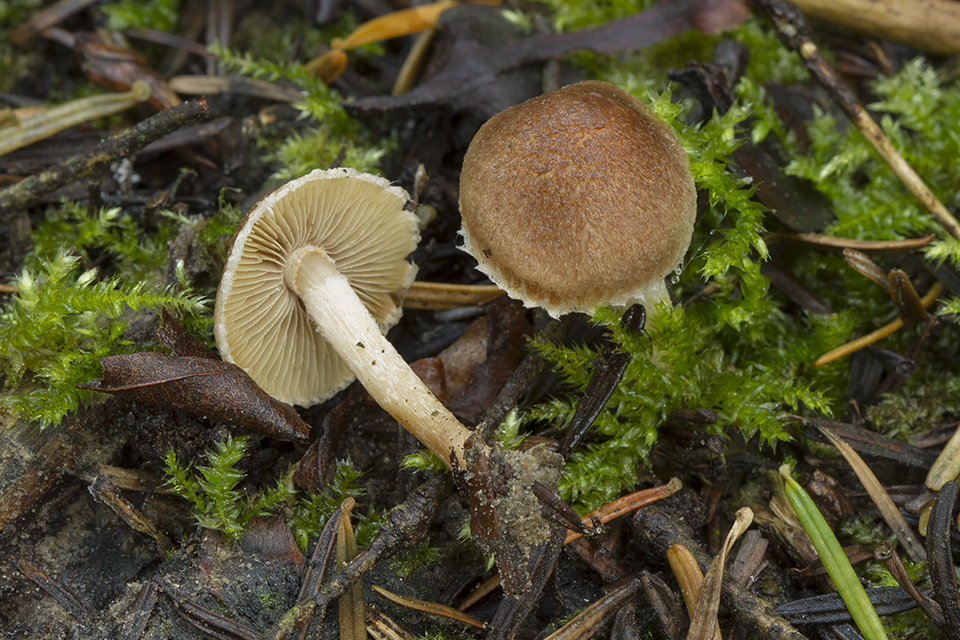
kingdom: Fungi
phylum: Basidiomycota
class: Agaricomycetes
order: Agaricales
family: Inocybaceae
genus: Inocybe
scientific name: Inocybe
